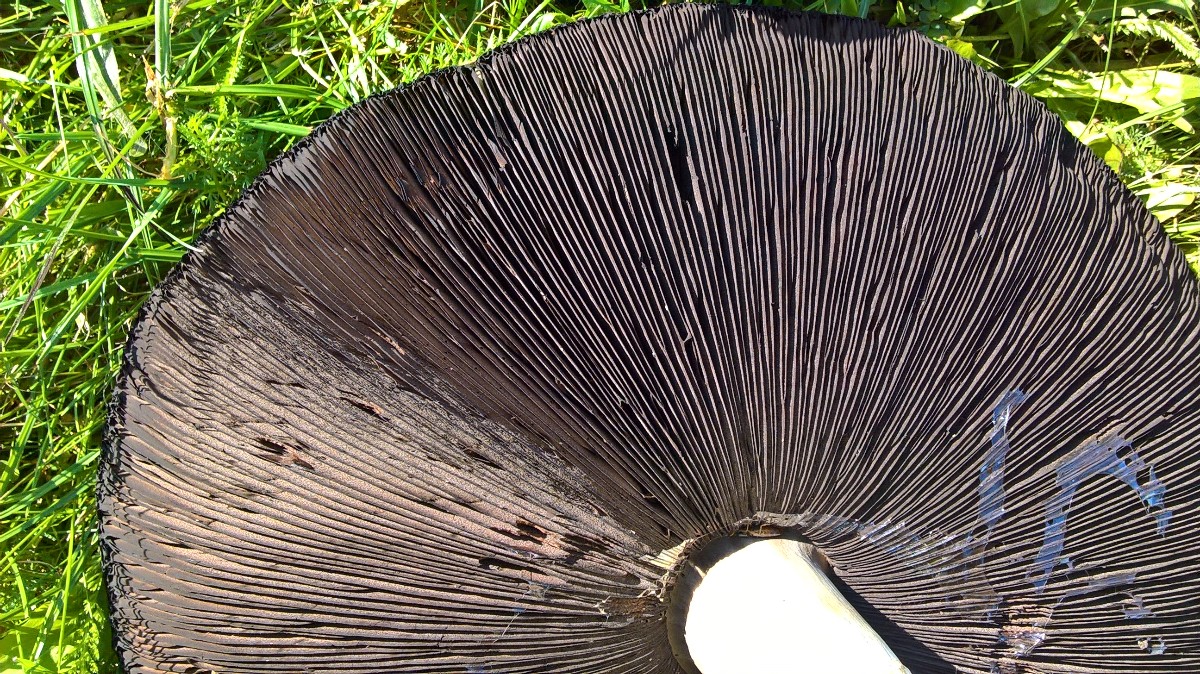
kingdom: Fungi
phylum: Basidiomycota
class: Agaricomycetes
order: Agaricales
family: Agaricaceae
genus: Agaricus
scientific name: Agaricus
